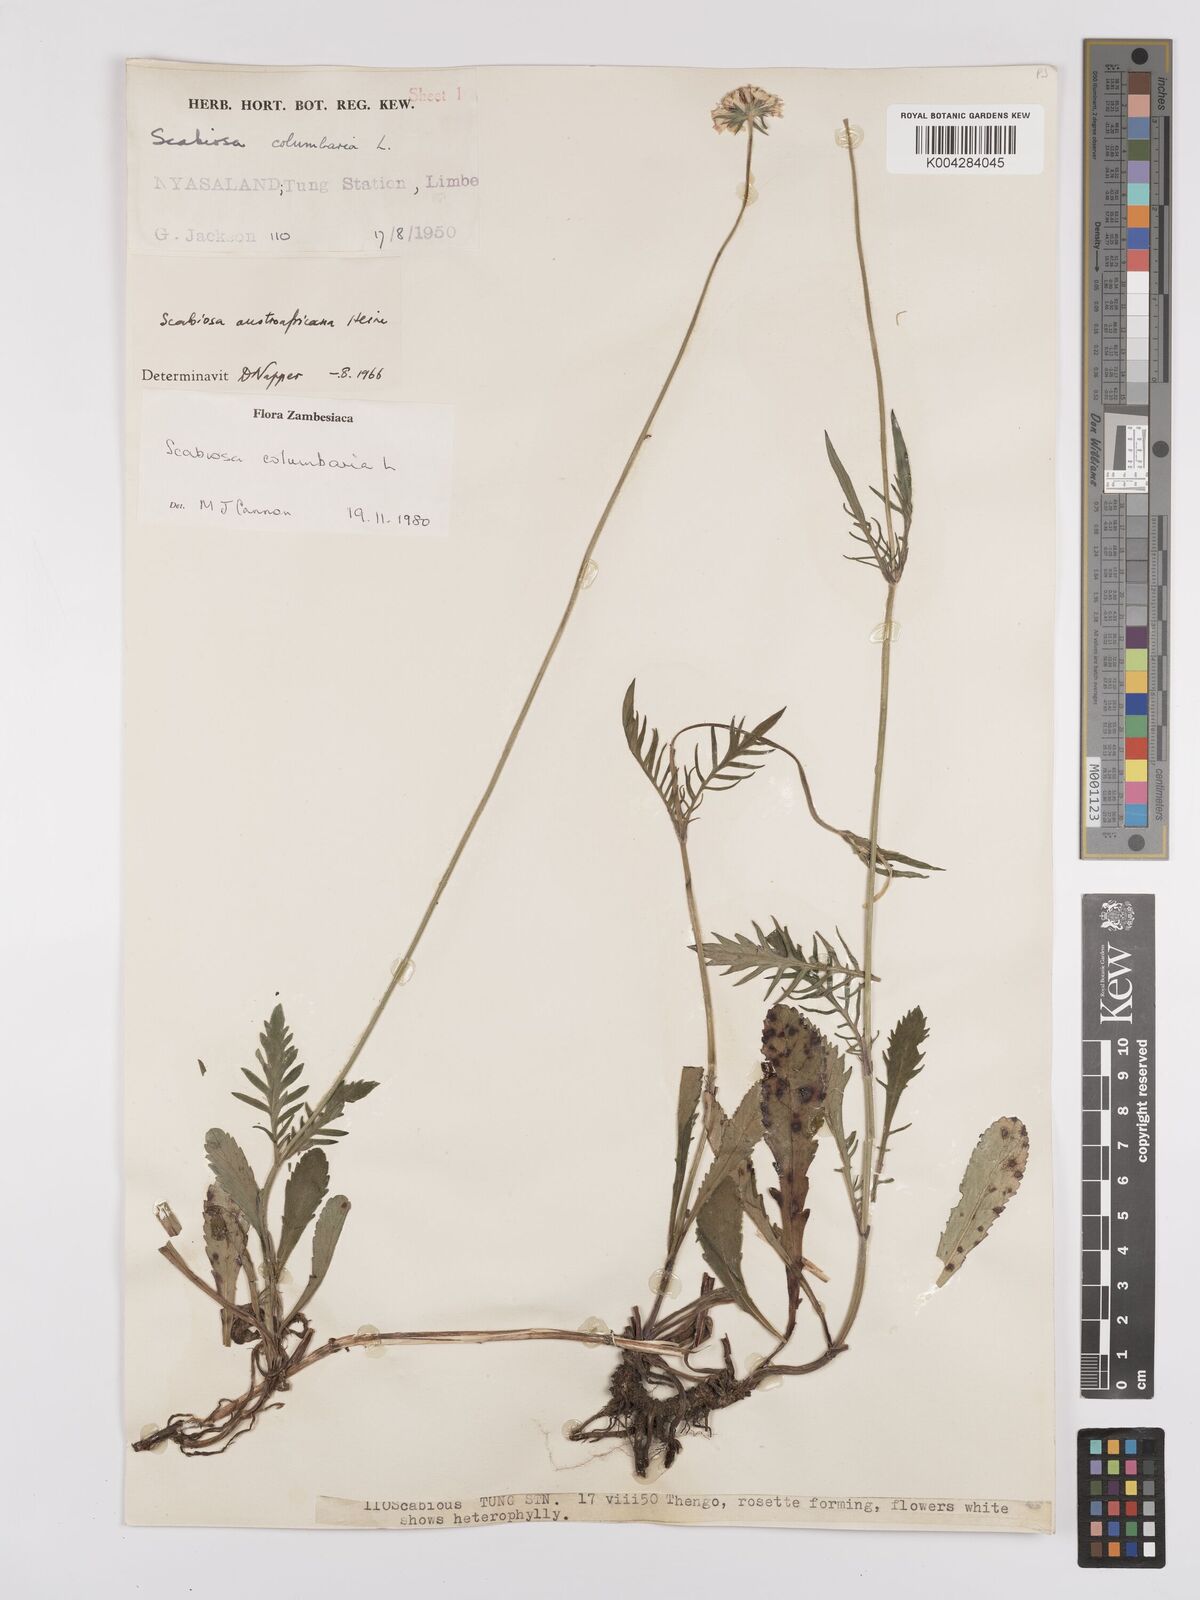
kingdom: Plantae
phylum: Tracheophyta
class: Magnoliopsida
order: Dipsacales
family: Caprifoliaceae
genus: Scabiosa
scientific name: Scabiosa austroafricana
